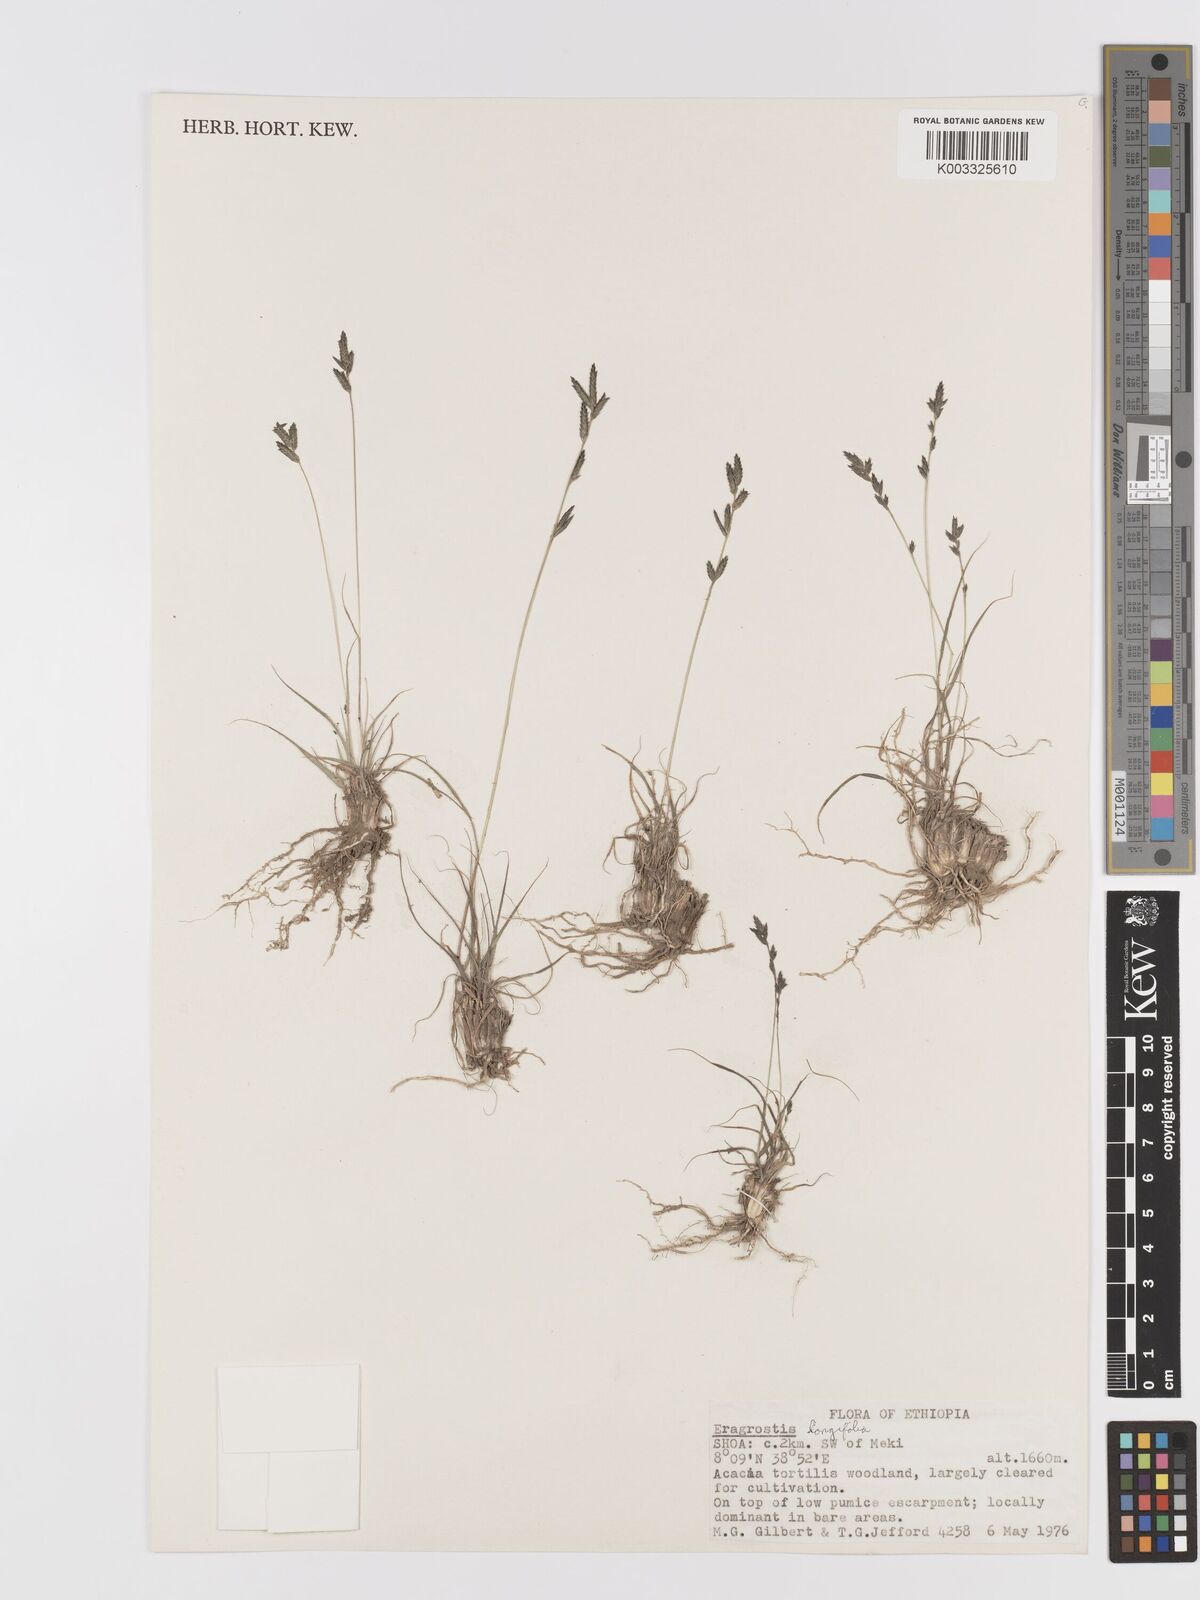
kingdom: Plantae
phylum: Tracheophyta
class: Liliopsida
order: Poales
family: Poaceae
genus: Eragrostis
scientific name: Eragrostis longifolia
